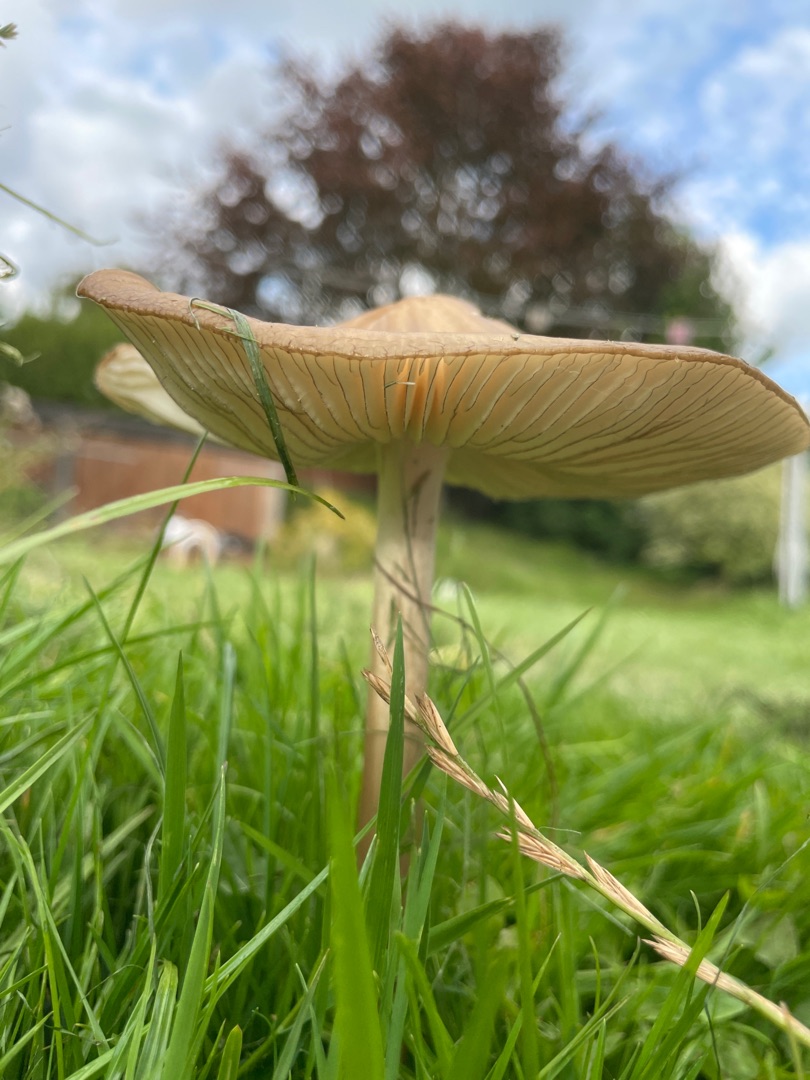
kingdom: Fungi
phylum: Basidiomycota
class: Agaricomycetes
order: Agaricales
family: Physalacriaceae
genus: Hymenopellis
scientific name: Hymenopellis radicata
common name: Almindelig pælerodshat
